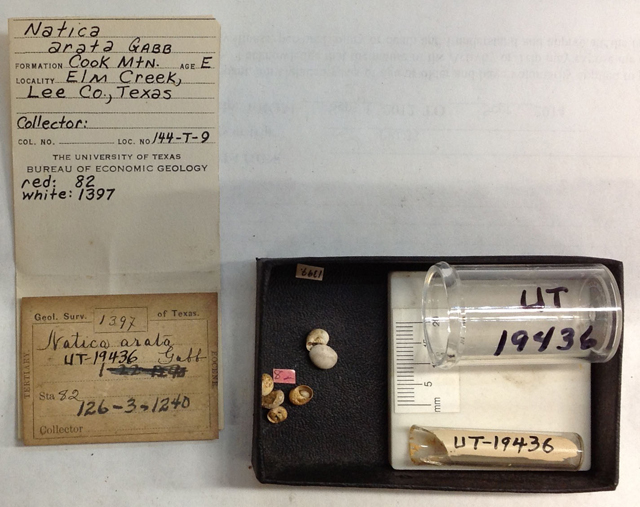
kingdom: Animalia
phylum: Mollusca
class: Gastropoda
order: Littorinimorpha
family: Naticidae
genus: Globisinum
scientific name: Globisinum pritchardi
